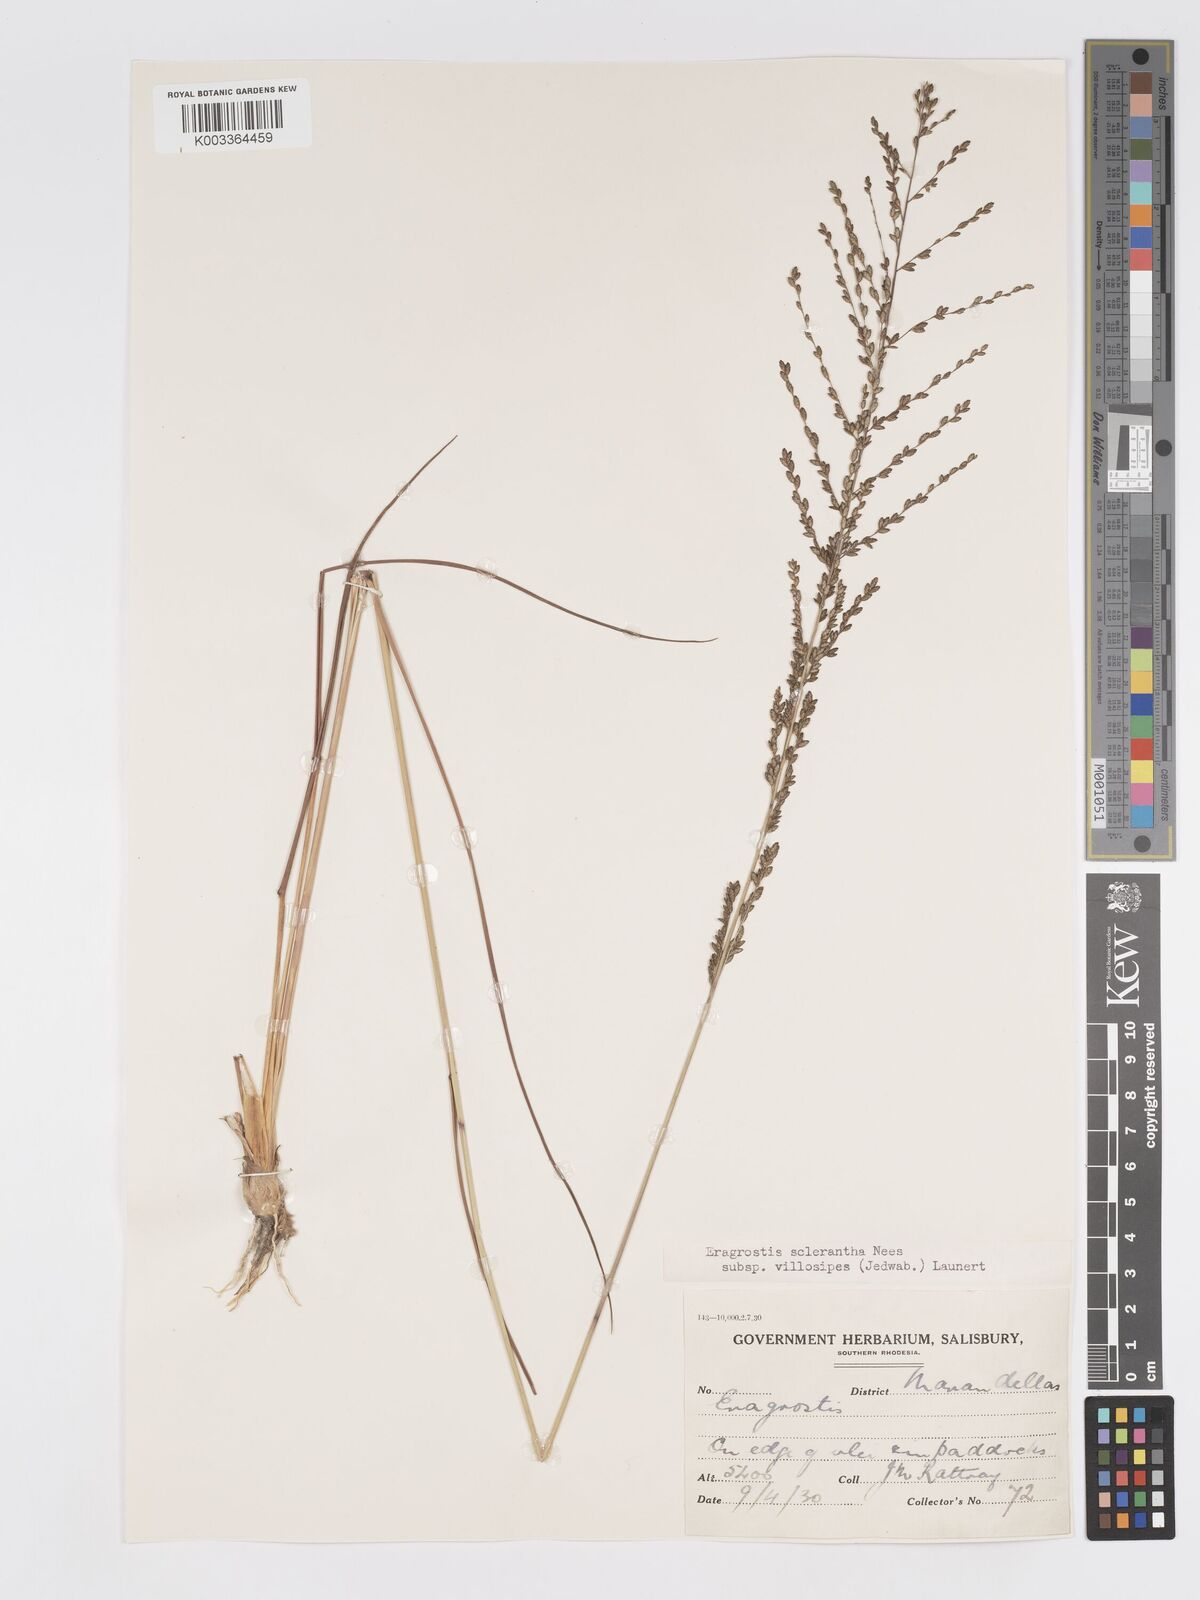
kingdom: Plantae
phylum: Tracheophyta
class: Liliopsida
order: Poales
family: Poaceae
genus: Eragrostis
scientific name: Eragrostis sclerantha
